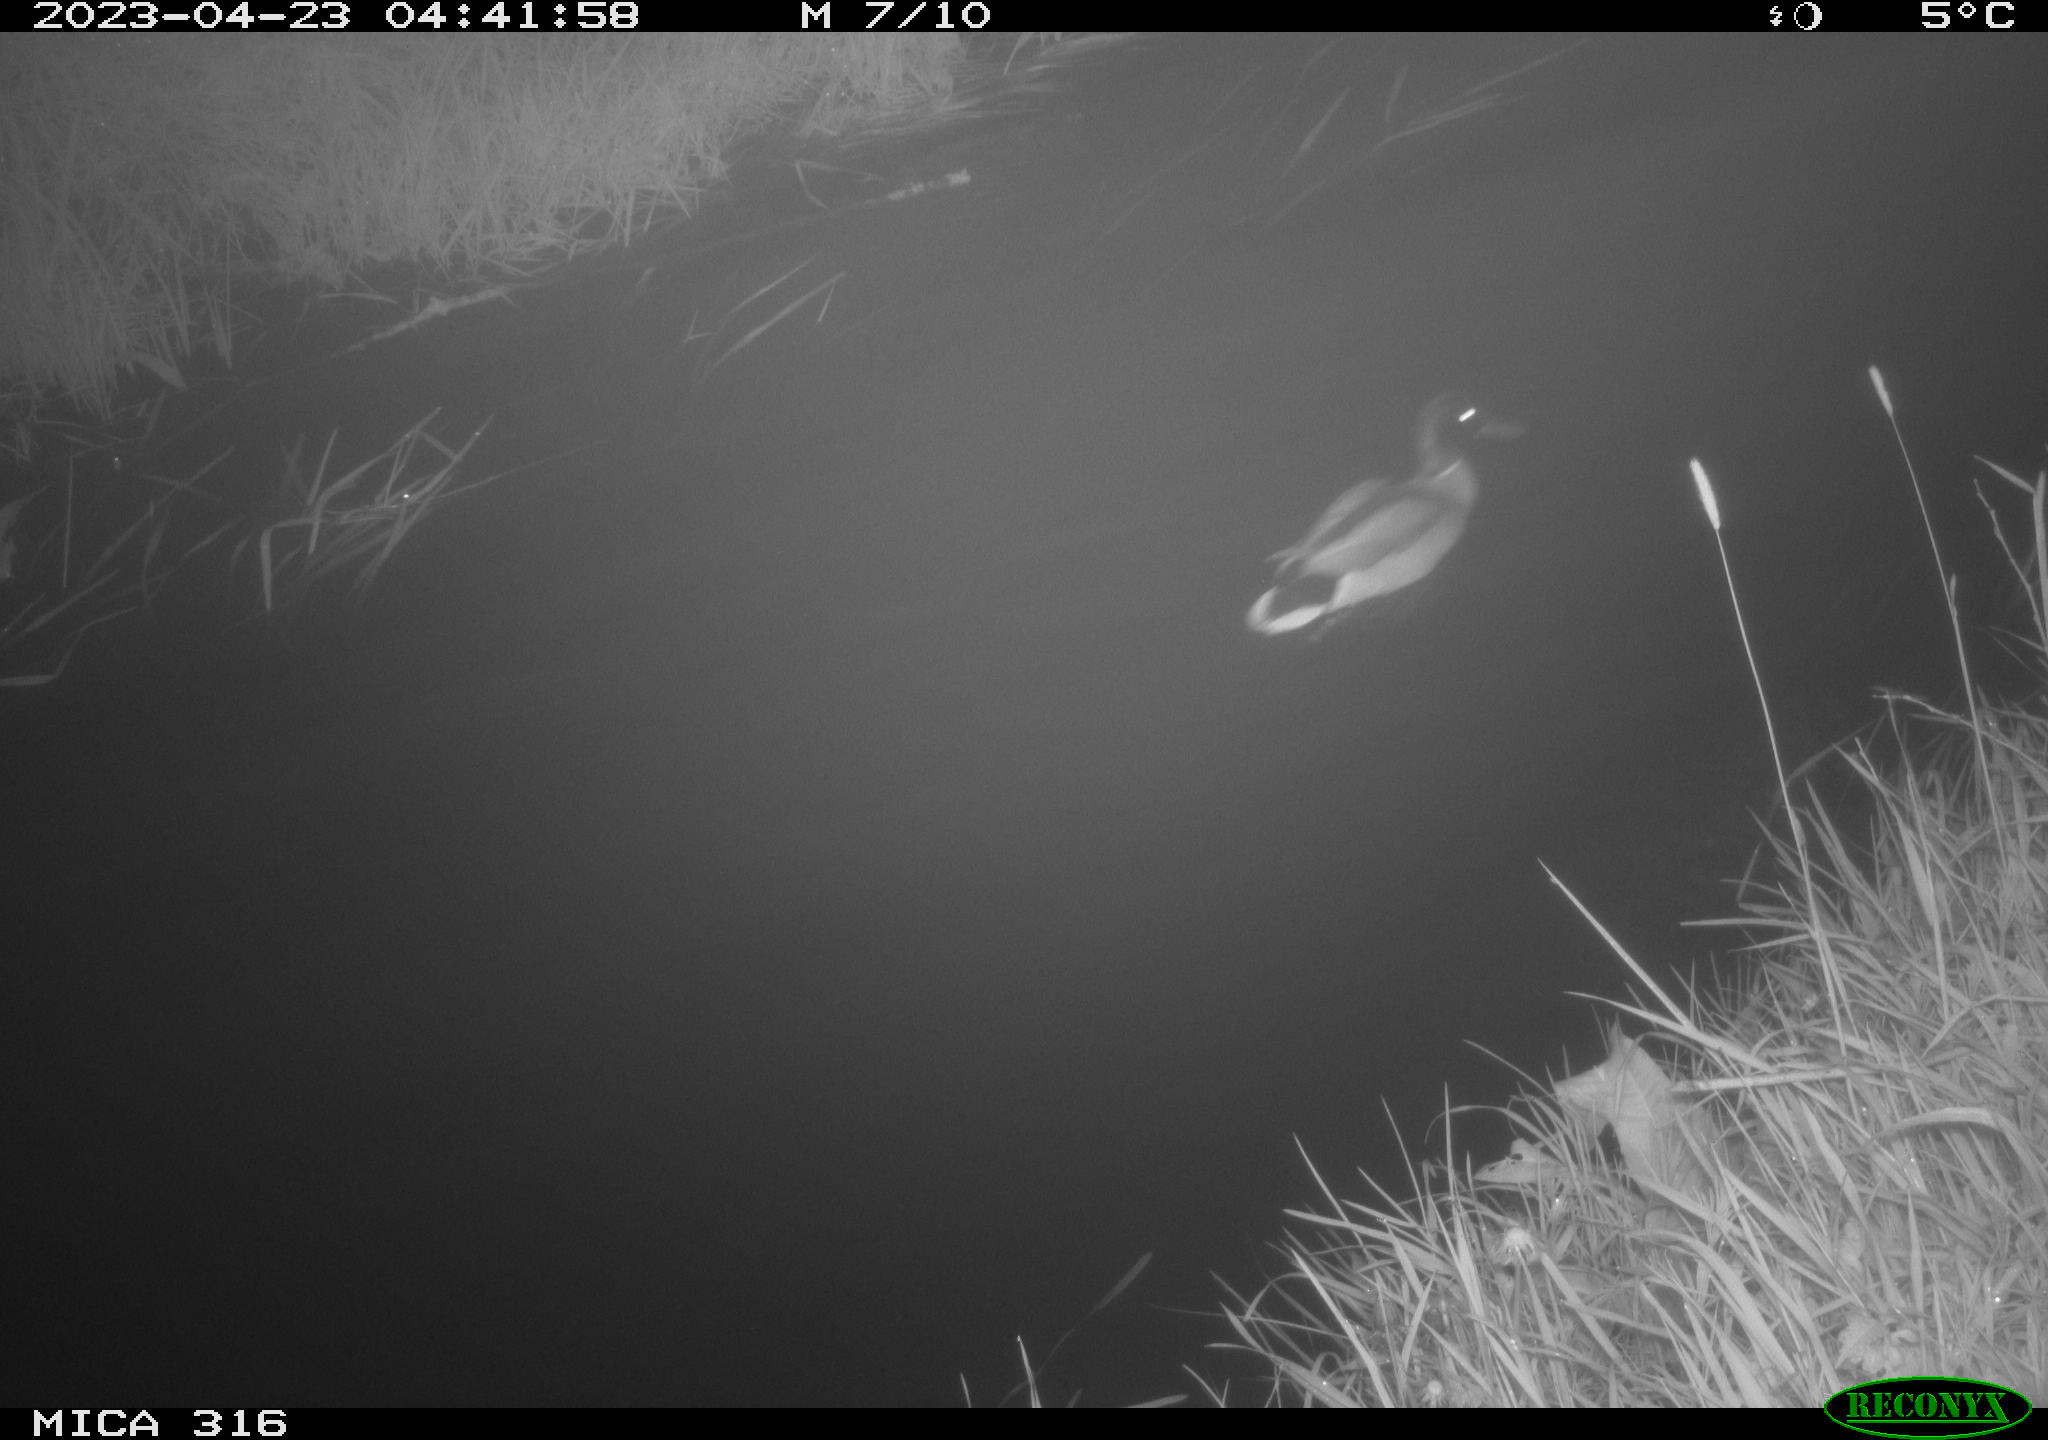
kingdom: Animalia
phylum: Chordata
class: Aves
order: Anseriformes
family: Anatidae
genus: Anas
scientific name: Anas
